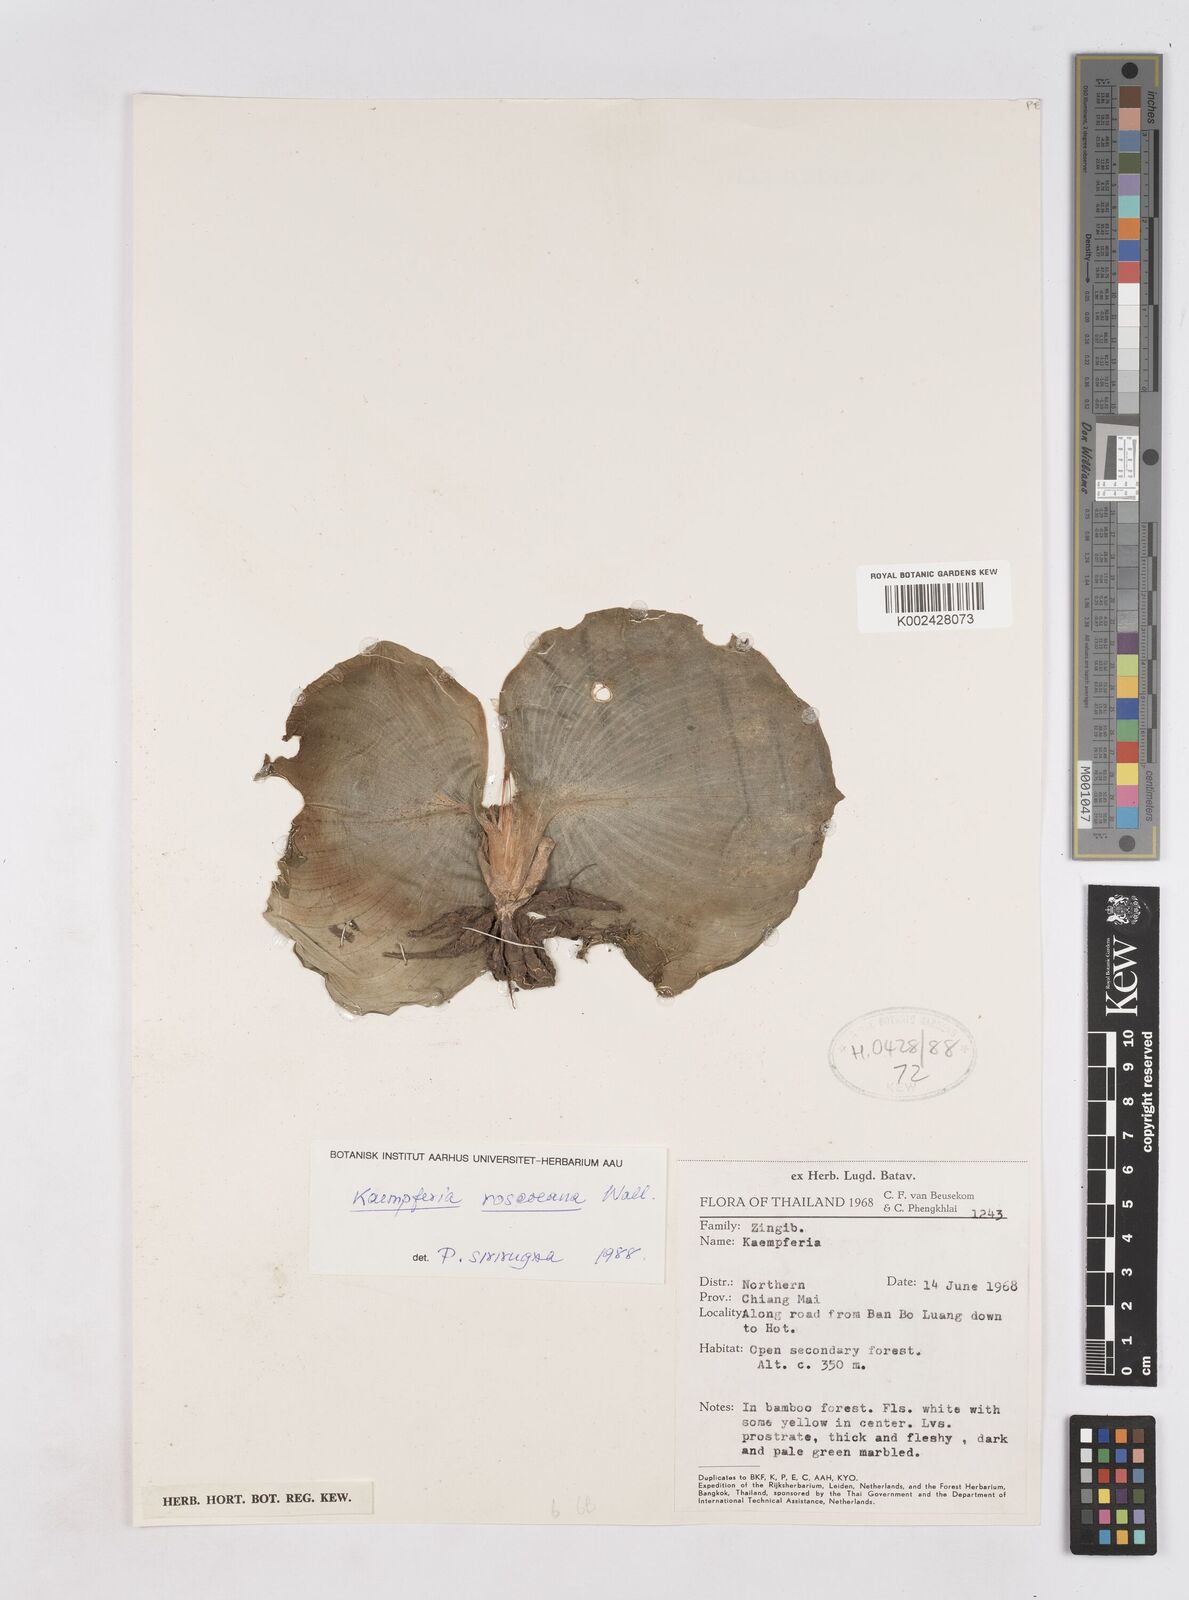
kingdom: Plantae
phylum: Tracheophyta
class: Liliopsida
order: Zingiberales
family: Zingiberaceae
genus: Kaempferia
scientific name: Kaempferia roscoeana
